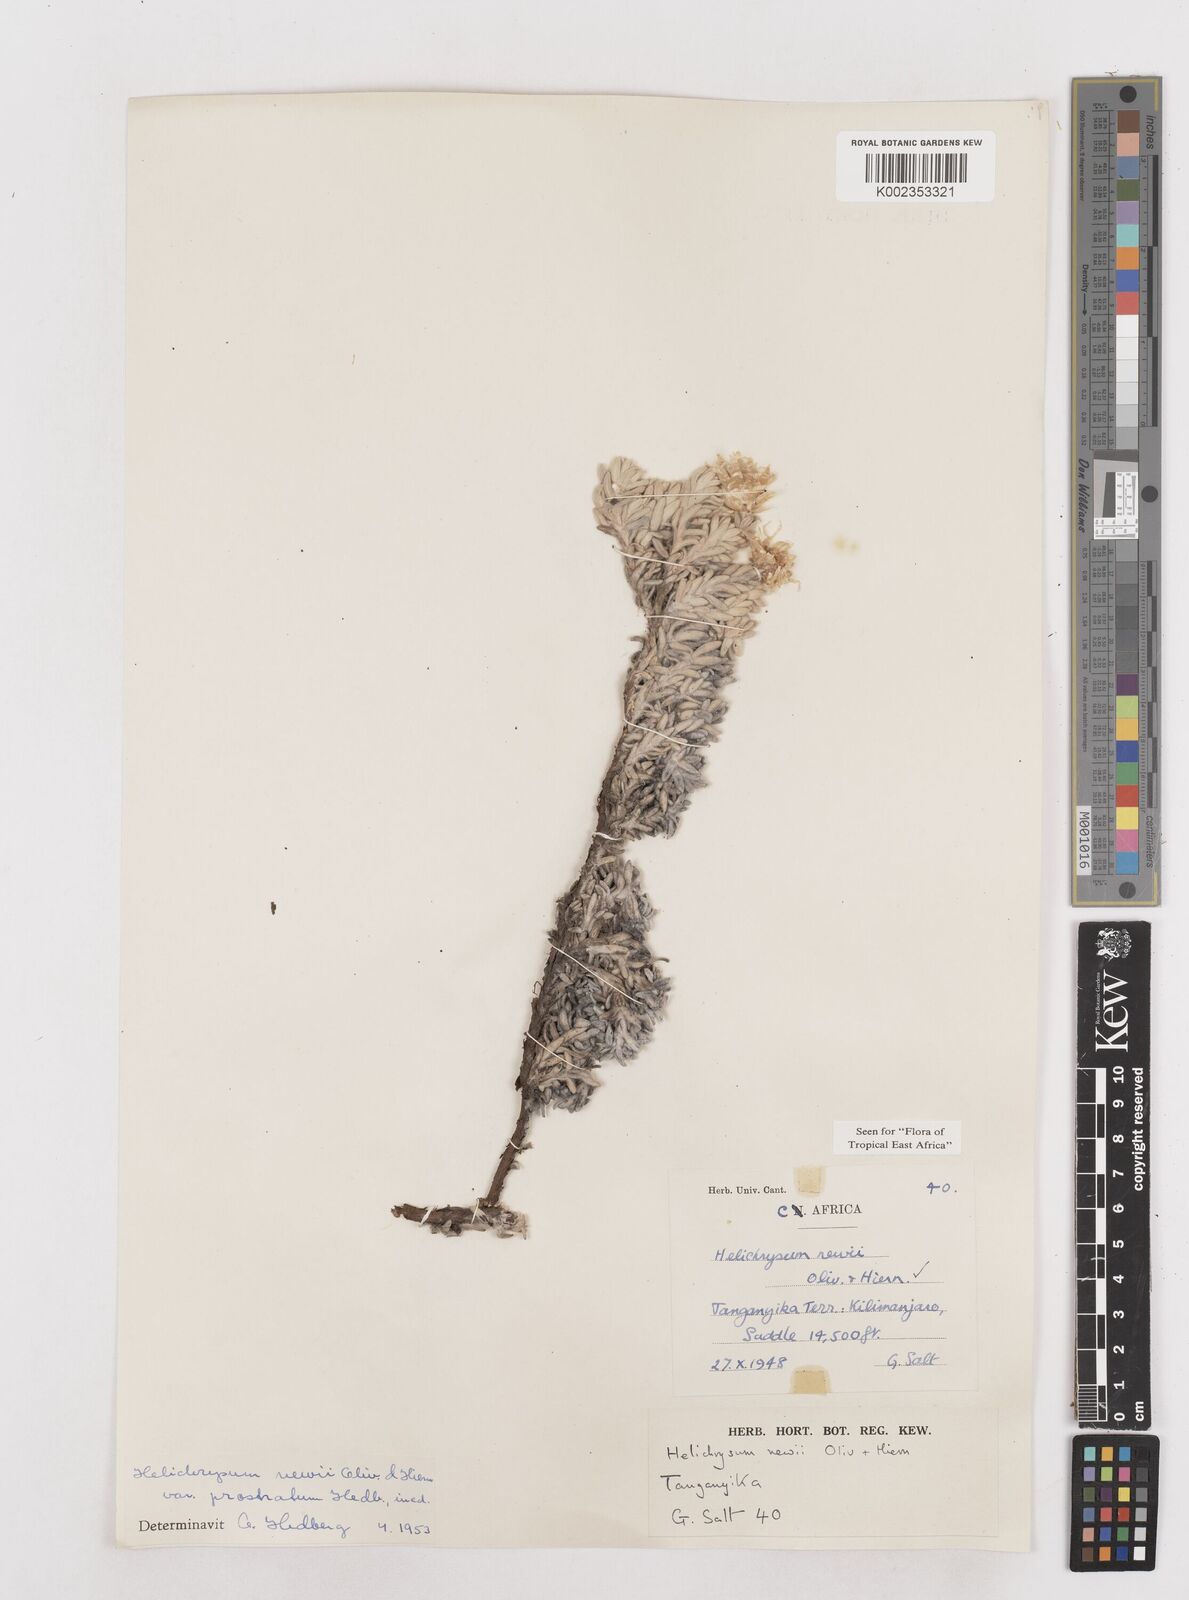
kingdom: Plantae
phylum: Tracheophyta
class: Magnoliopsida
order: Asterales
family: Asteraceae
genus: Helichrysum
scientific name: Helichrysum newii
